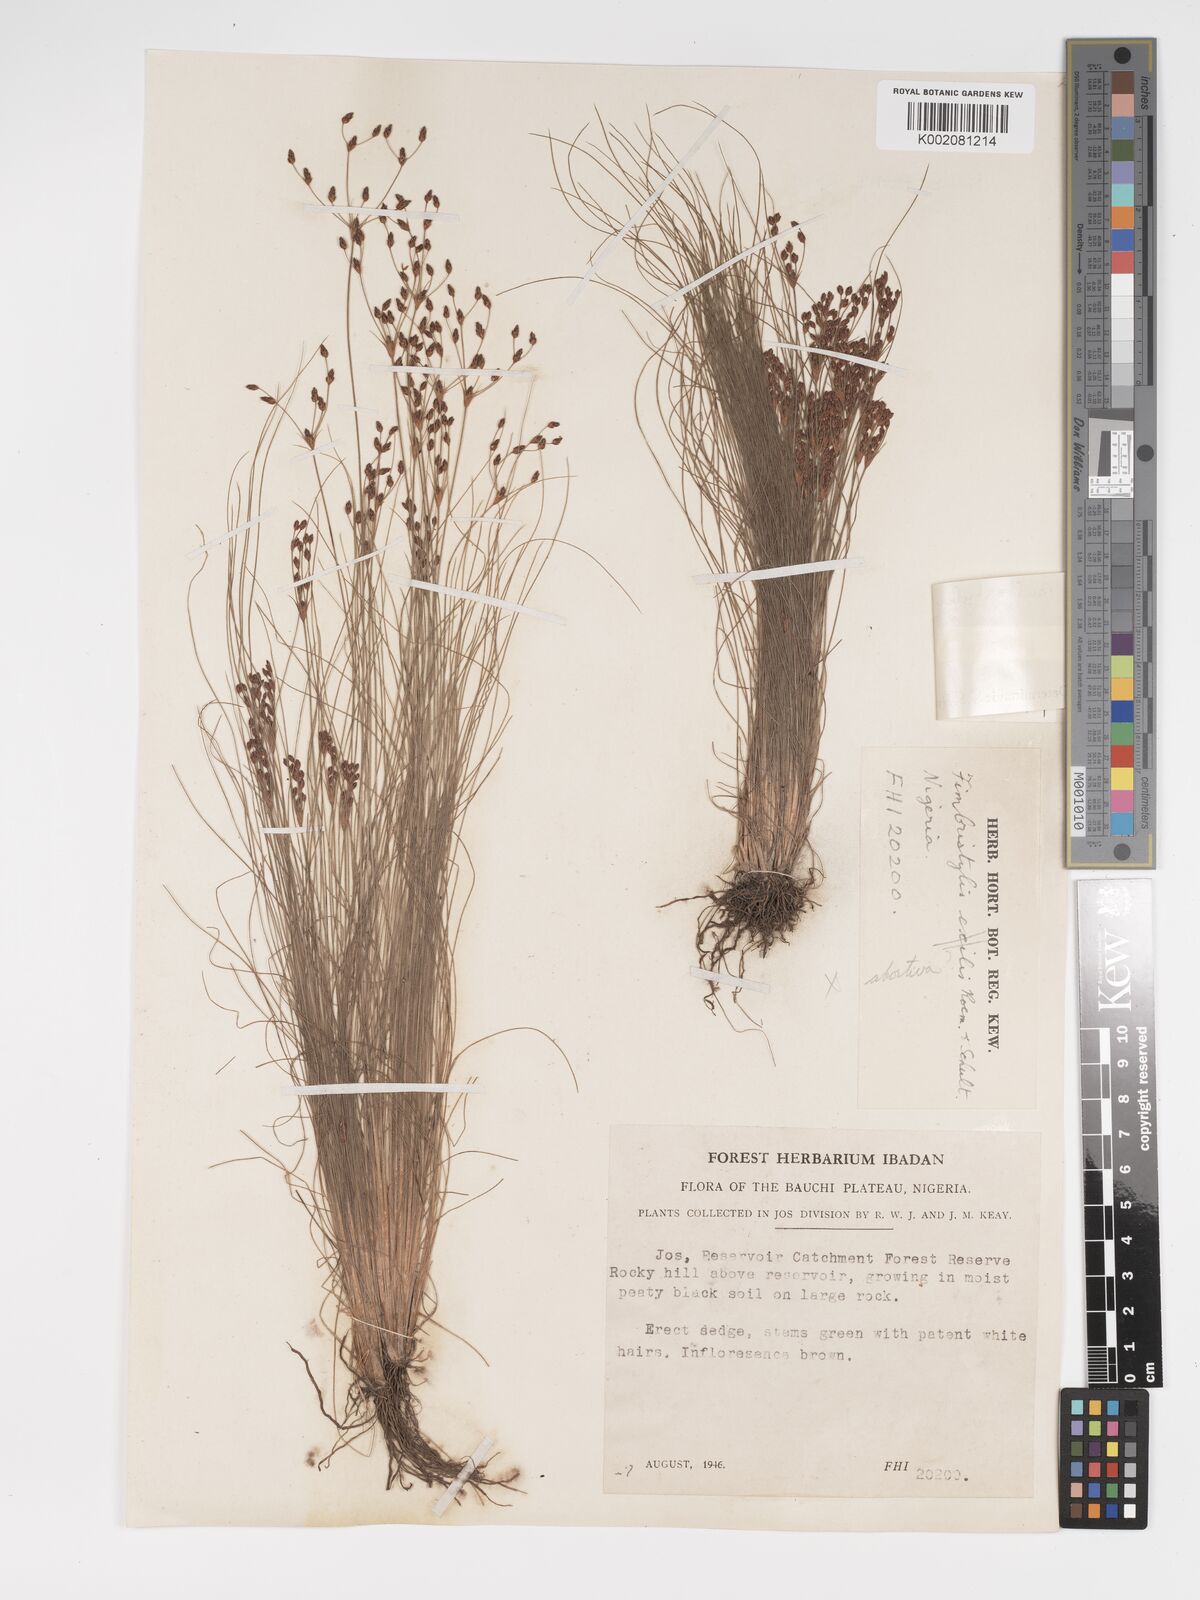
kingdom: Plantae
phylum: Tracheophyta
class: Liliopsida
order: Poales
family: Cyperaceae
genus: Bulbostylis
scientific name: Bulbostylis congolensis
